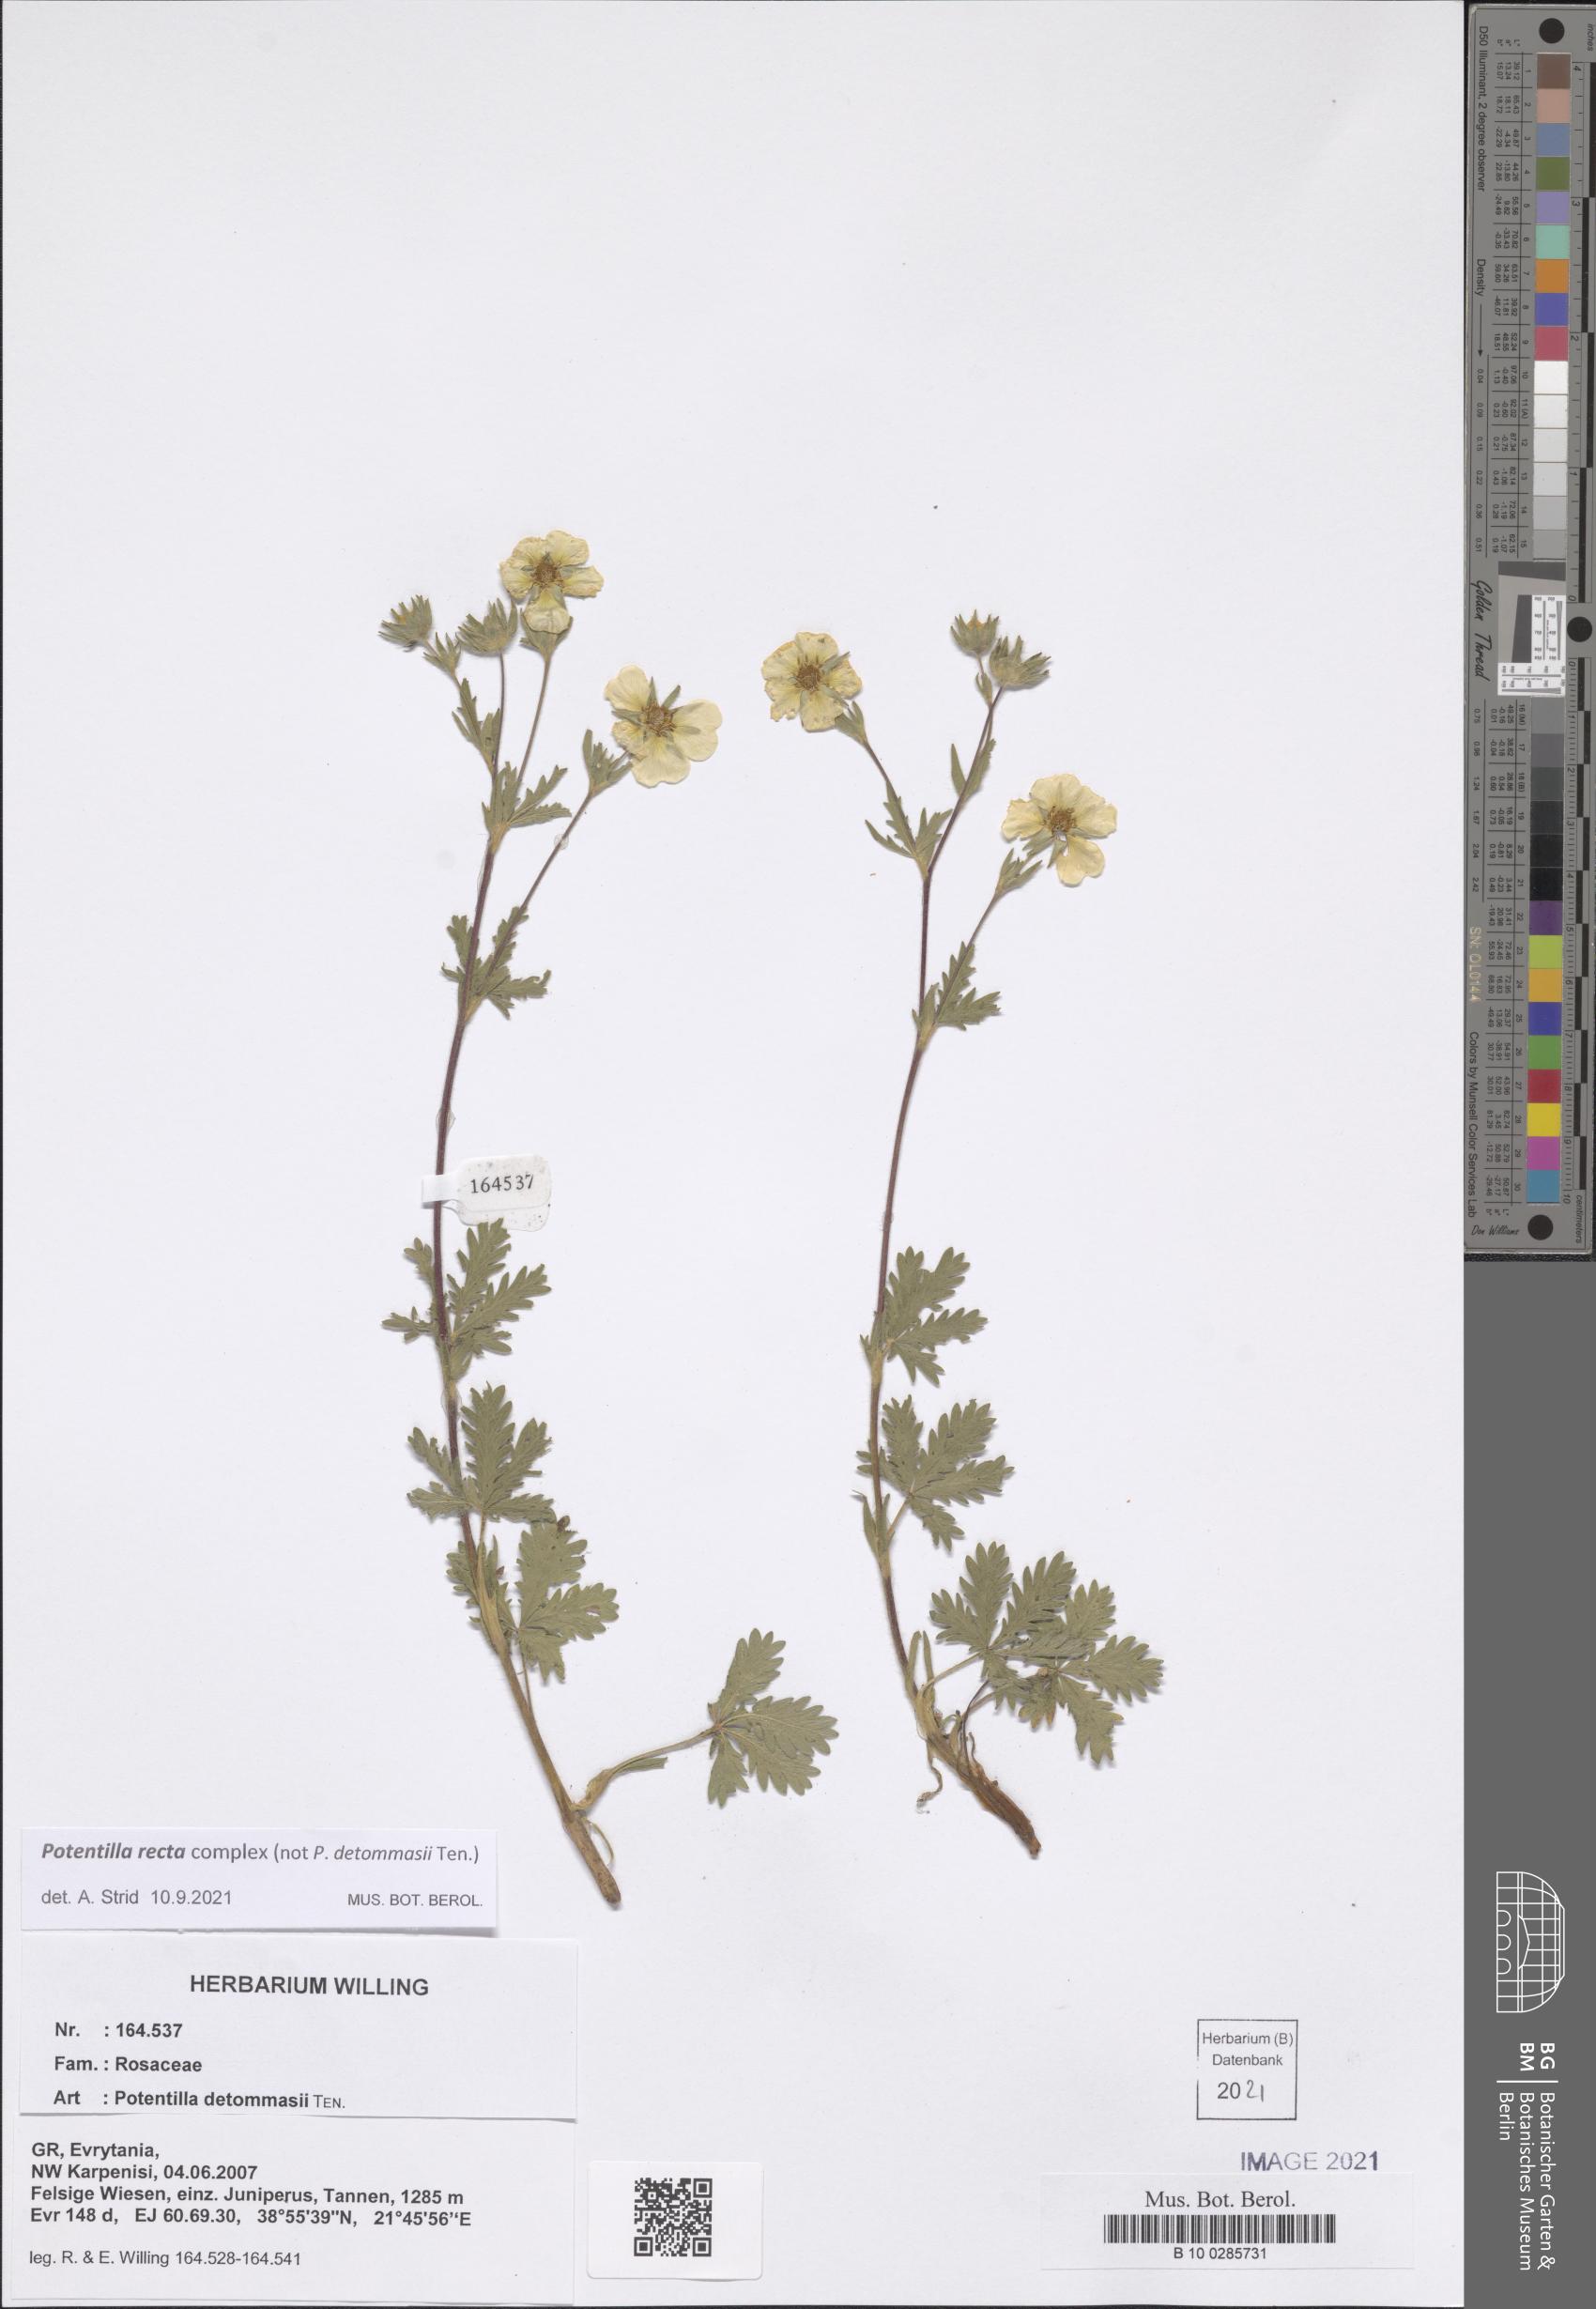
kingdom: Plantae
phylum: Tracheophyta
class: Magnoliopsida
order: Rosales
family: Rosaceae
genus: Potentilla
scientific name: Potentilla recta
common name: Sulphur cinquefoil
